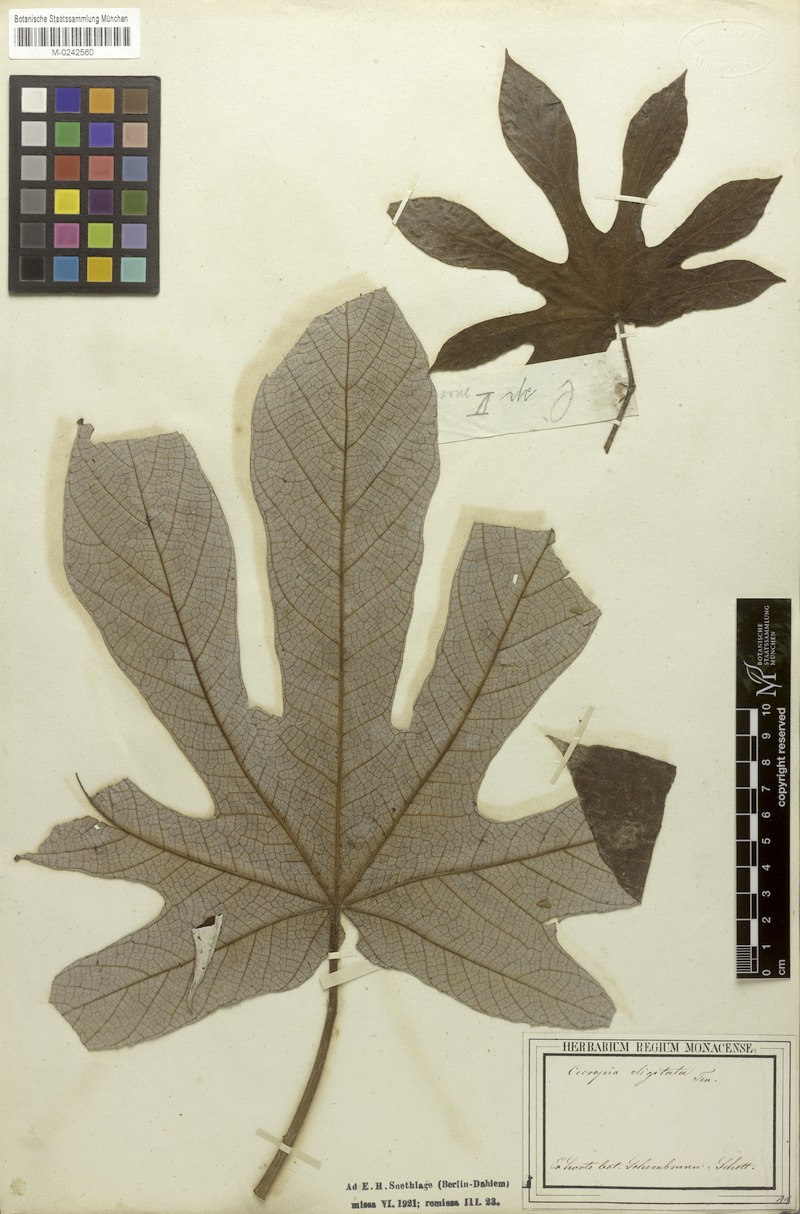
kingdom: Plantae
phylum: Tracheophyta
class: Magnoliopsida
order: Rosales
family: Urticaceae
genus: Cecropia
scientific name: Cecropia pachystachya
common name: Ambay pumpwood
